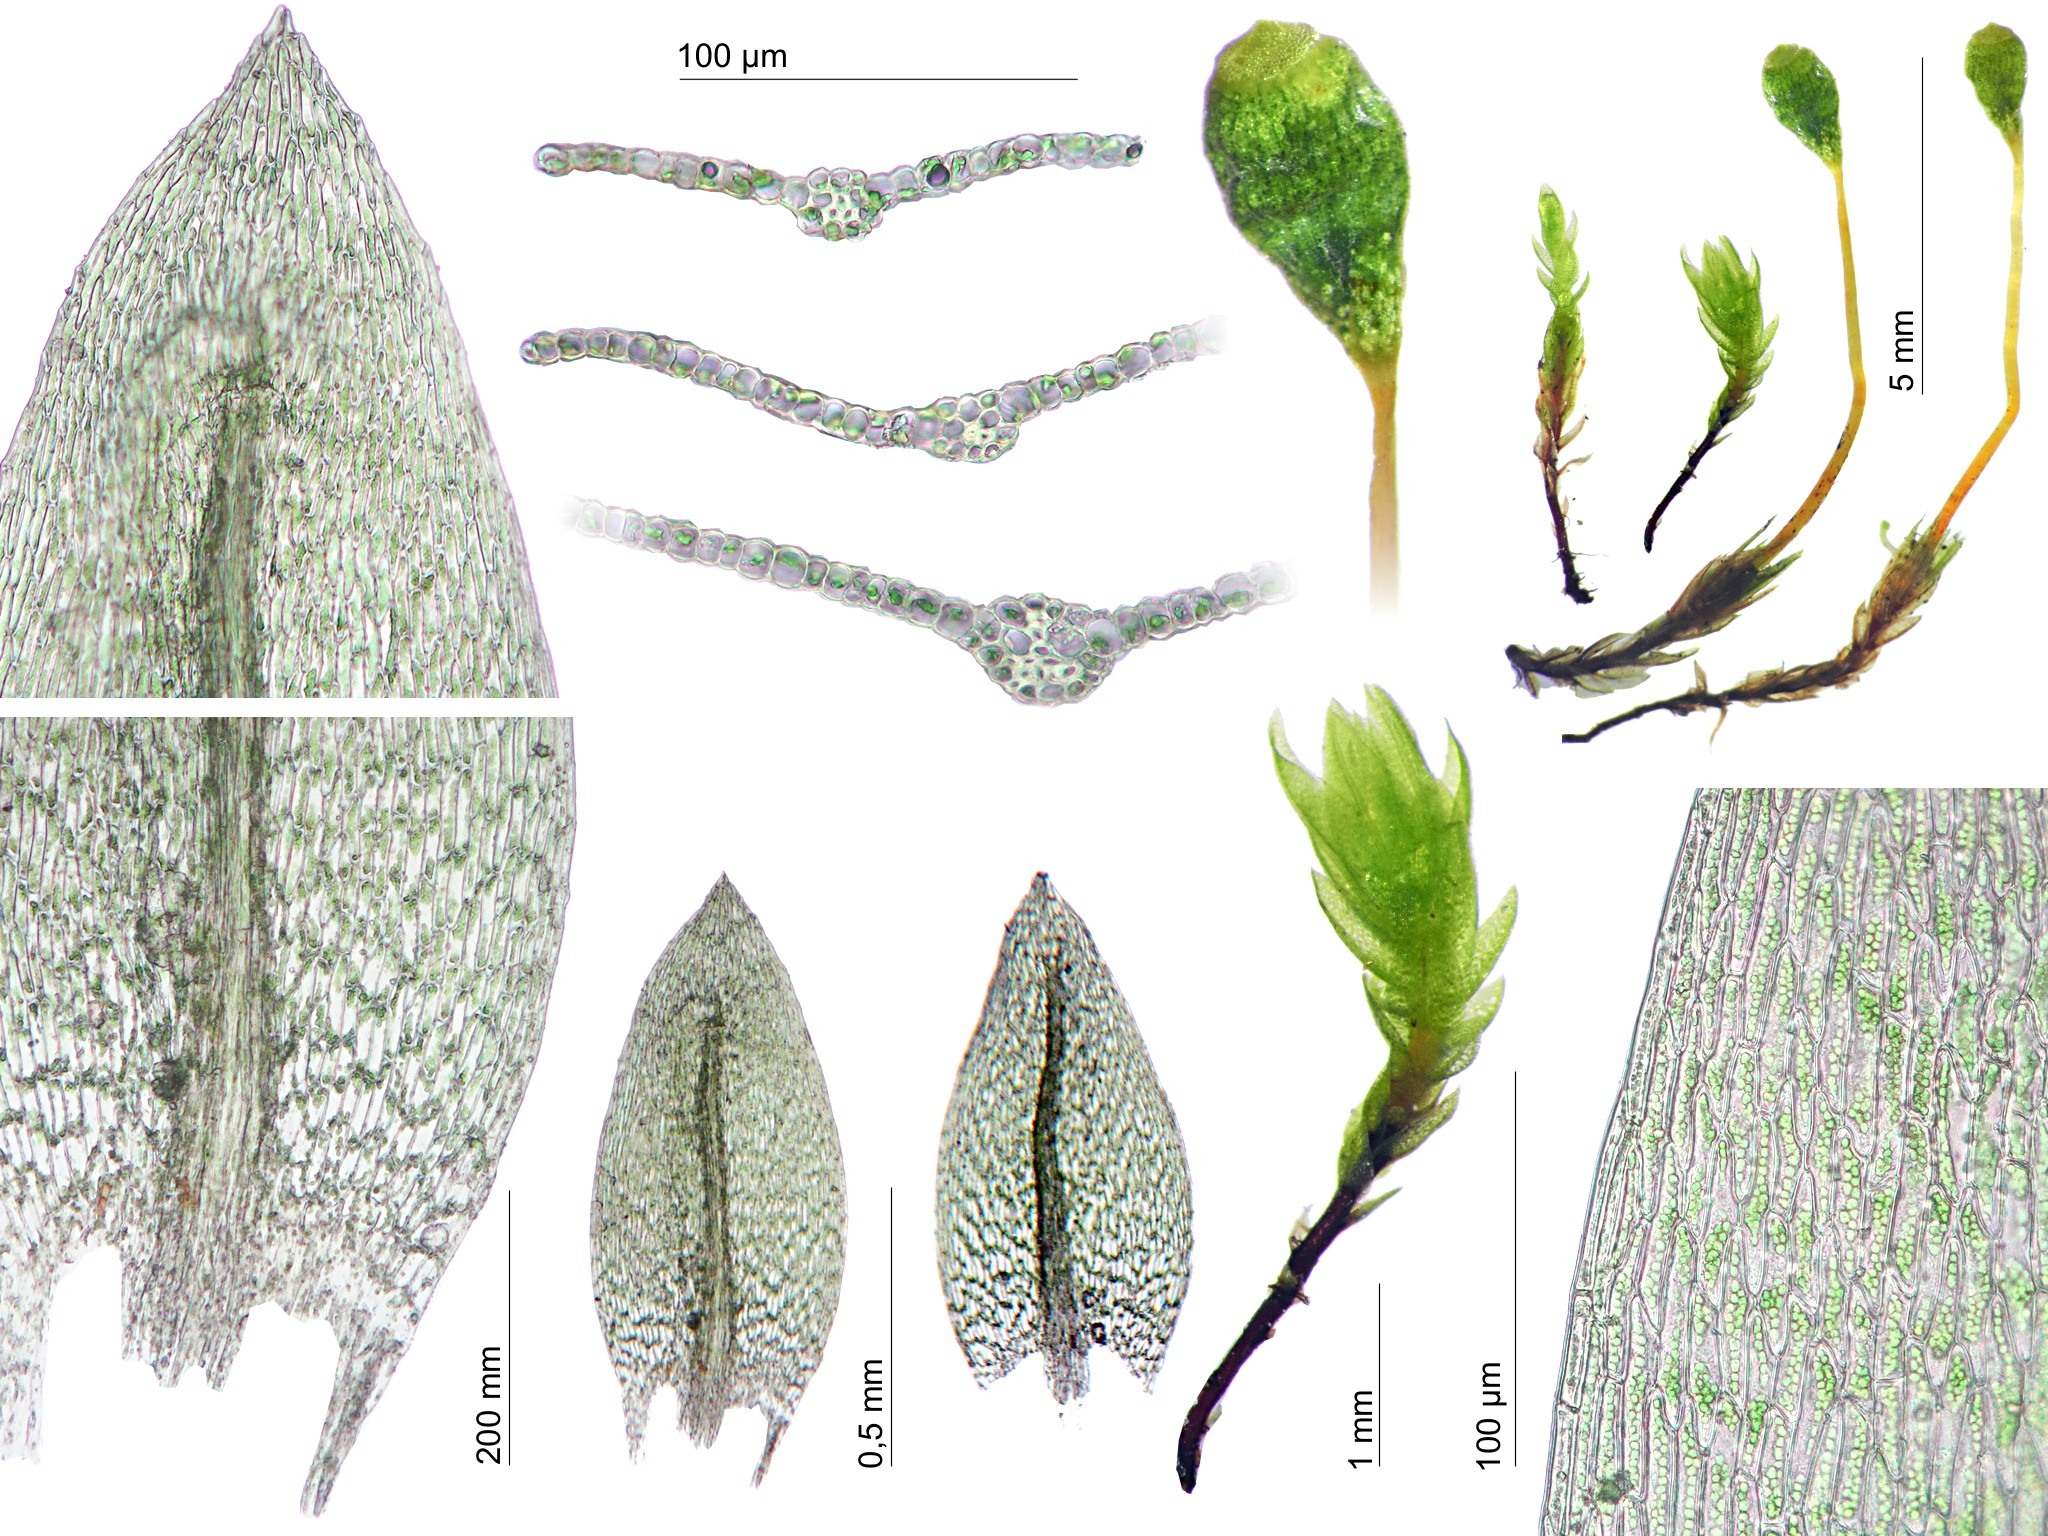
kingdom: Plantae
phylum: Bryophyta
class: Bryopsida
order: Bryales
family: Mniaceae
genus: Pohlia
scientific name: Pohlia erecta
